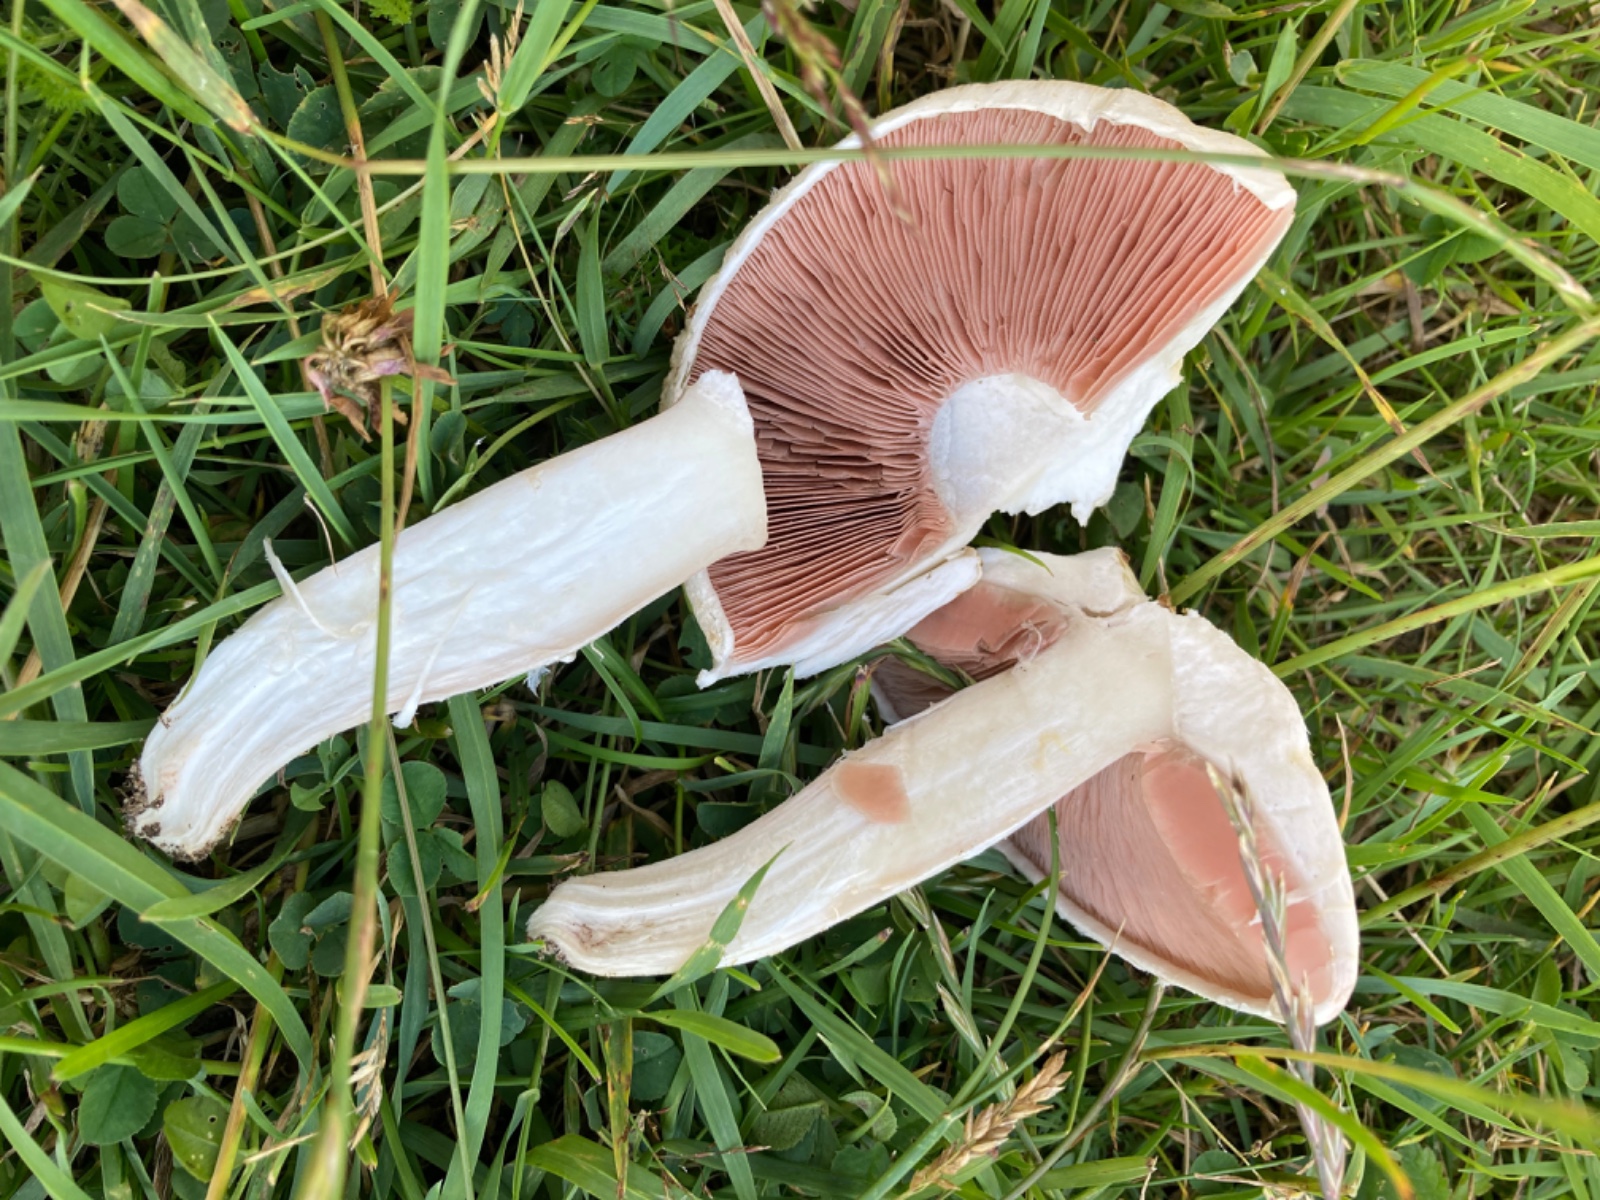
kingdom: Fungi
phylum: Basidiomycota
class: Agaricomycetes
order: Agaricales
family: Agaricaceae
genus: Agaricus
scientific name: Agaricus campestris
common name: mark-champignon
